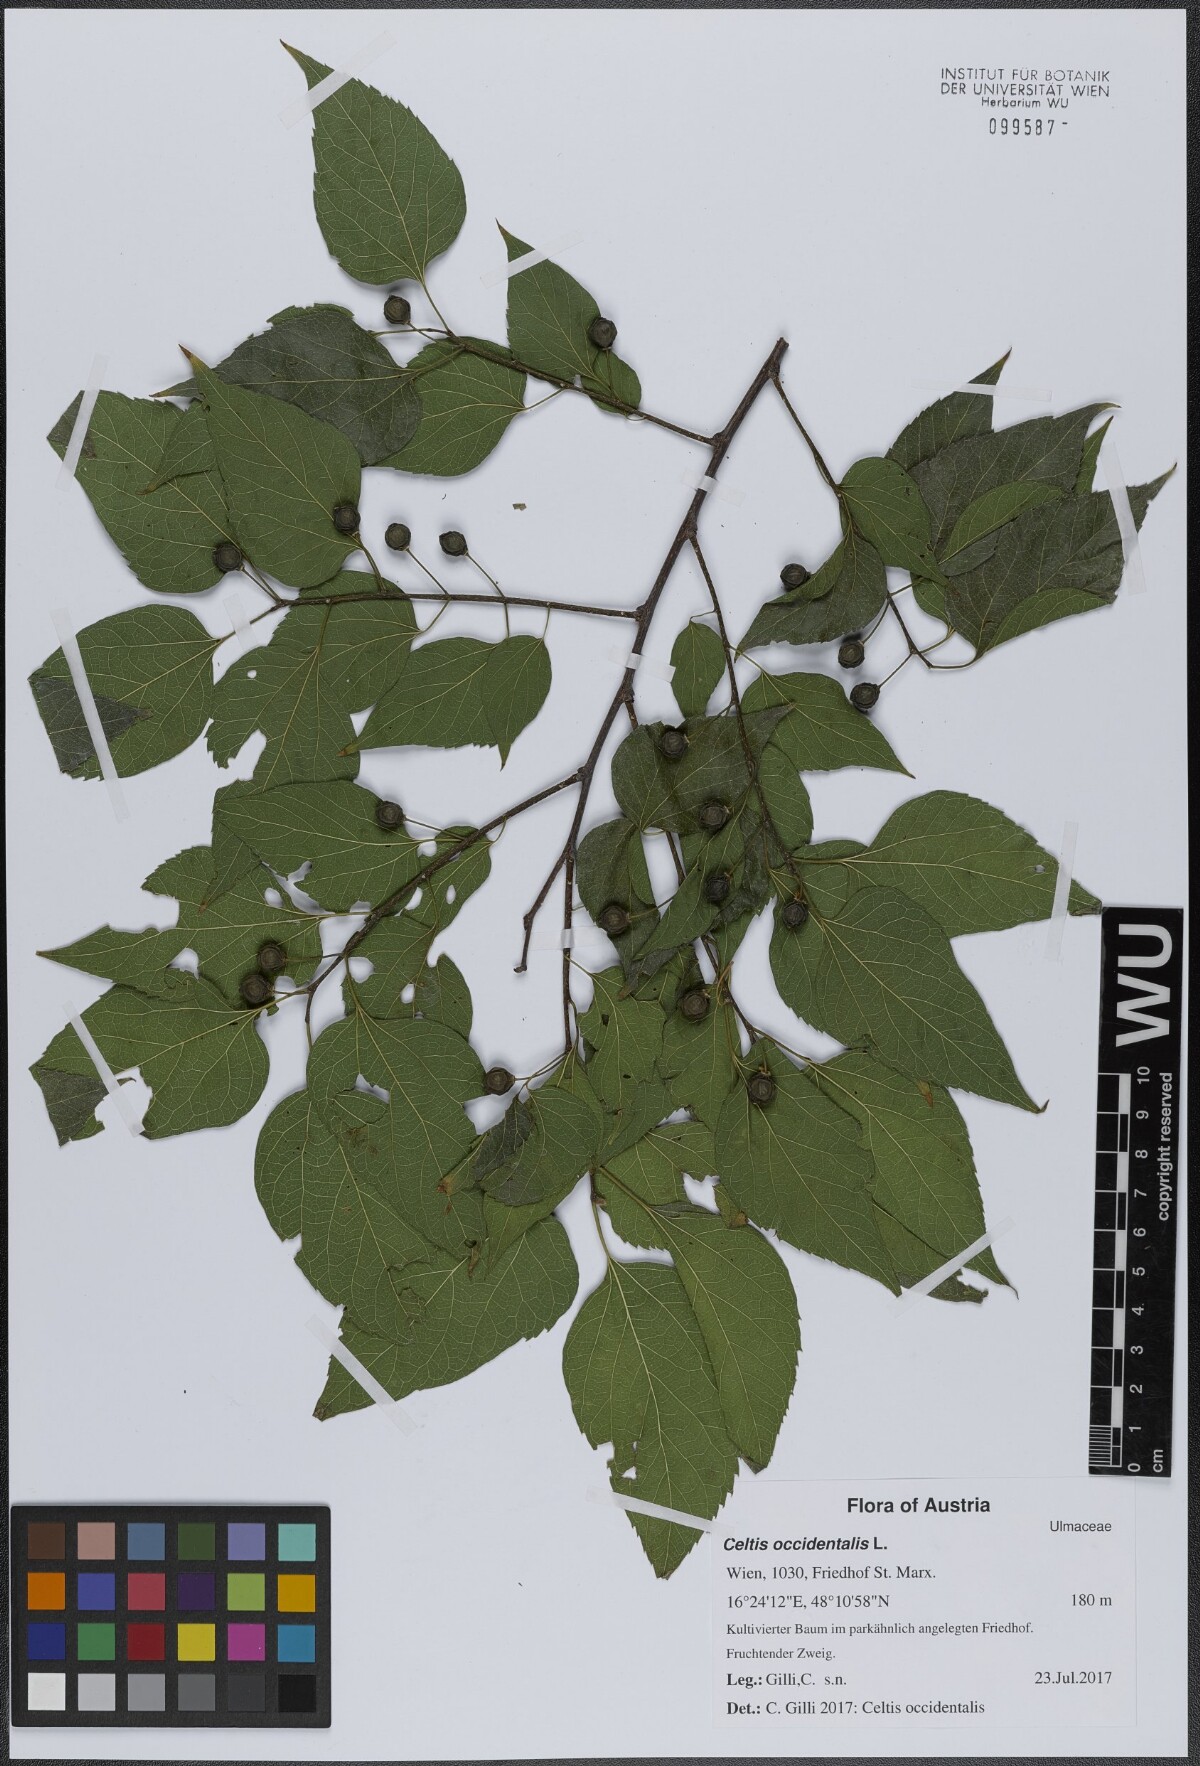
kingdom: Plantae
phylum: Tracheophyta
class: Magnoliopsida
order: Rosales
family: Cannabaceae
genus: Celtis
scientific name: Celtis occidentalis
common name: Common hackberry
